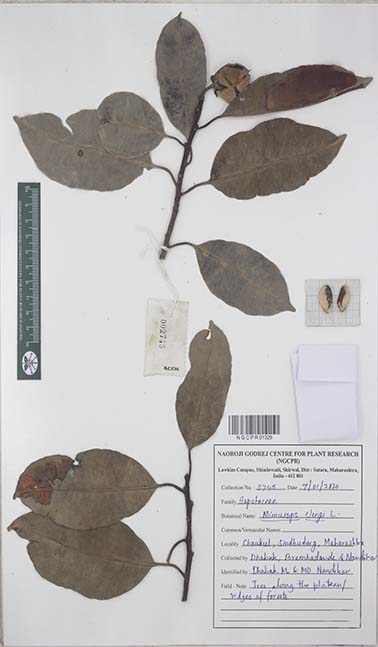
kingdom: Plantae
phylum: Tracheophyta
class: Magnoliopsida
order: Ericales
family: Sapotaceae
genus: Mimusops
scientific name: Mimusops elengi
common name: Spanish cherry
